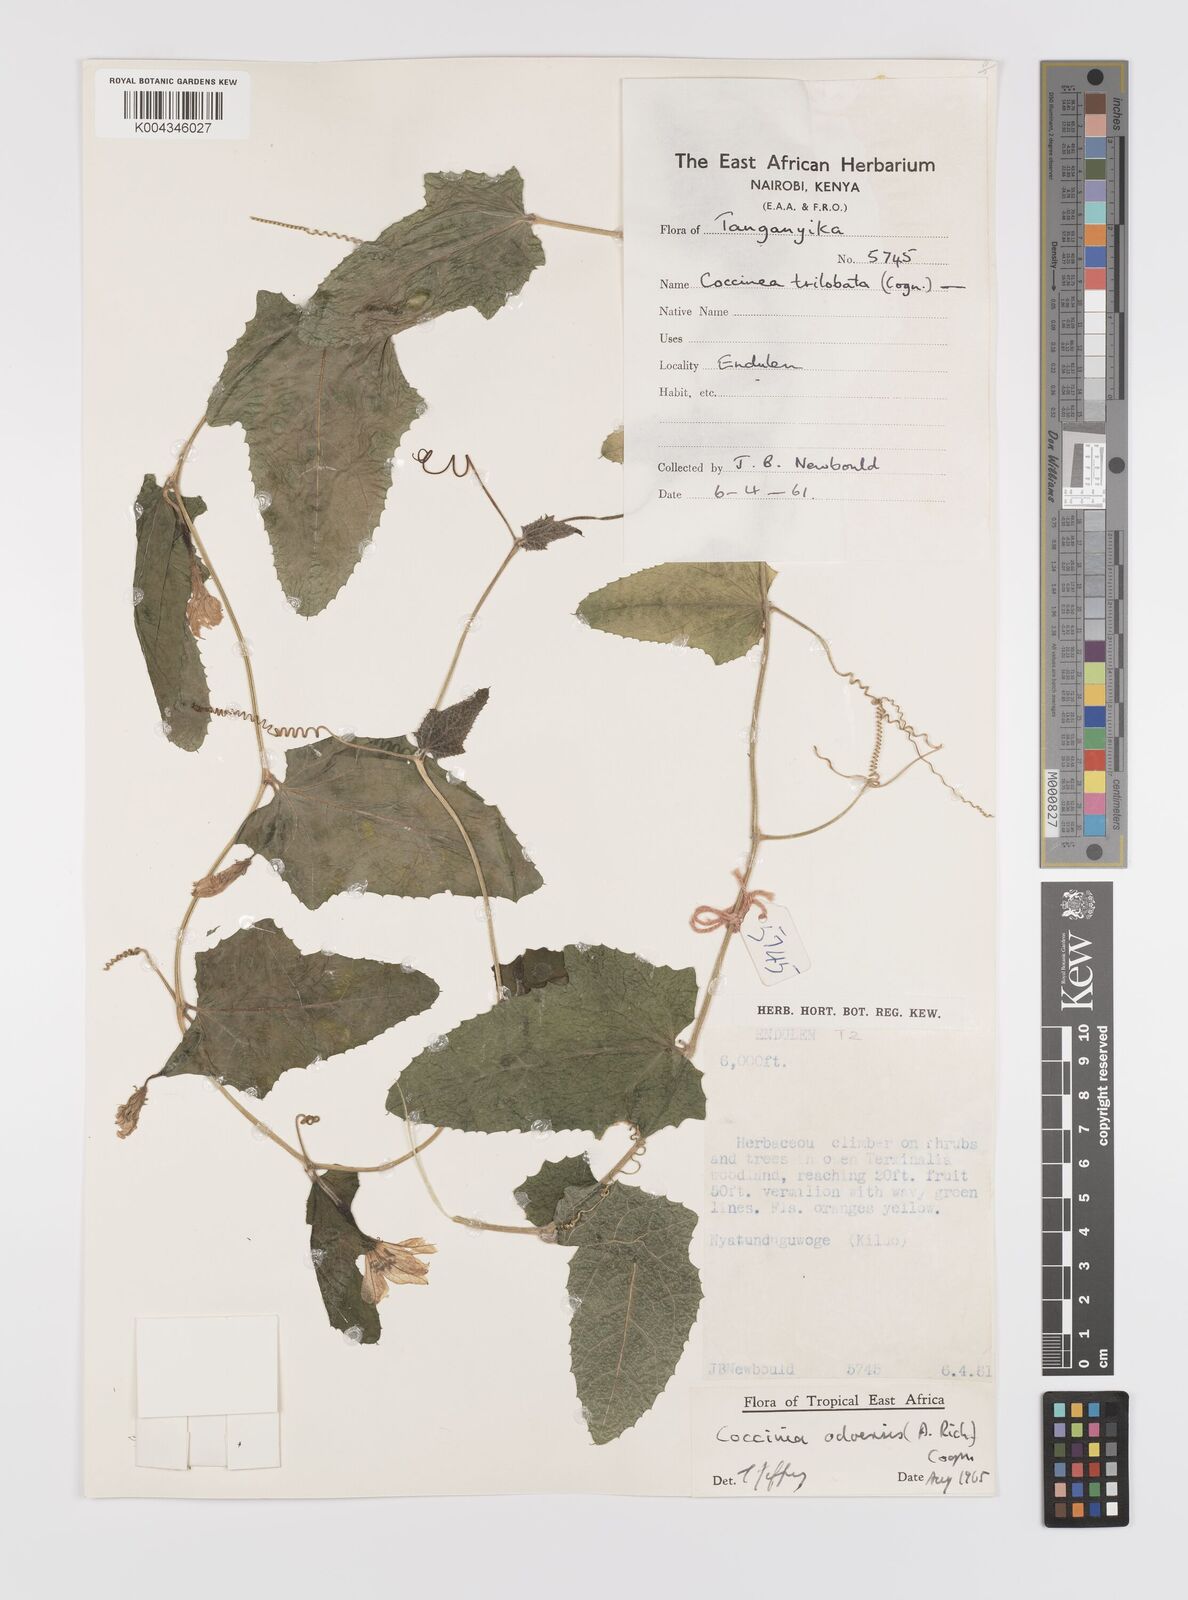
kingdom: Plantae
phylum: Tracheophyta
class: Magnoliopsida
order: Cucurbitales
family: Cucurbitaceae
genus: Coccinia
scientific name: Coccinia adoensis
